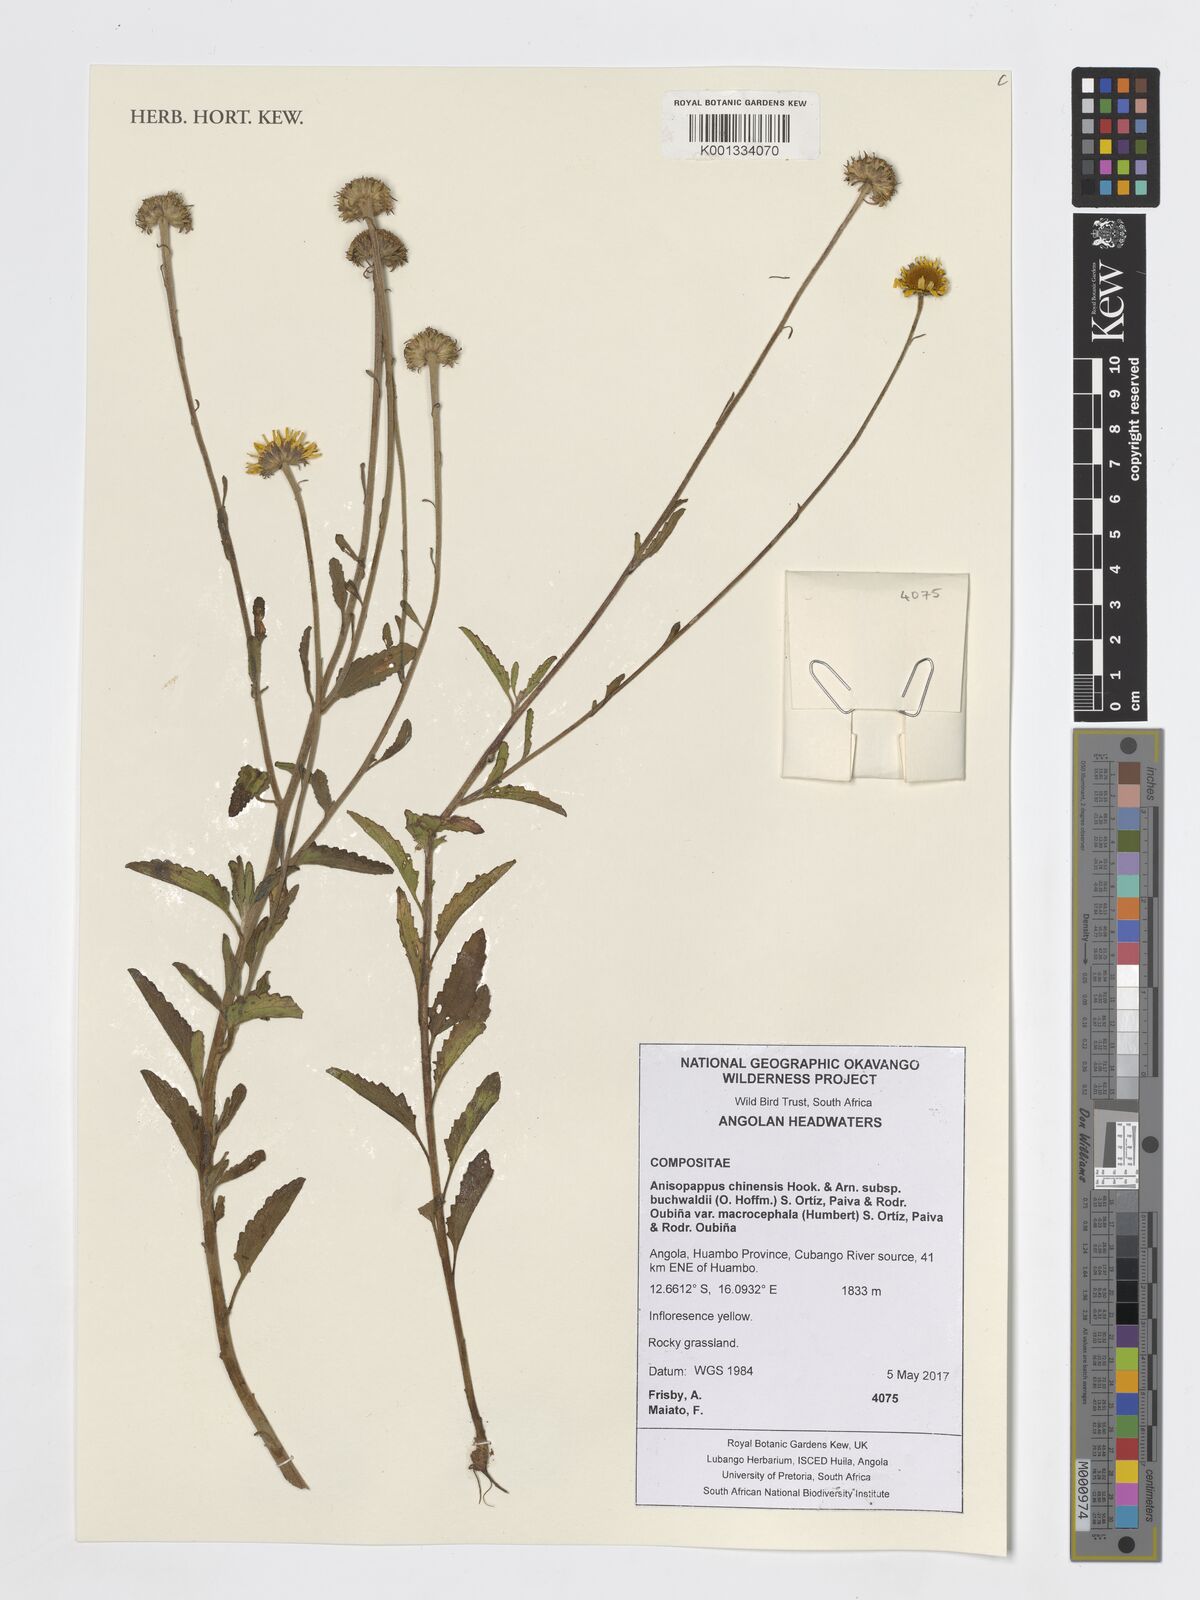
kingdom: Plantae
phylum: Tracheophyta
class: Magnoliopsida
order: Asterales
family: Asteraceae
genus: Anisopappus
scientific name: Anisopappus buchwaldii
